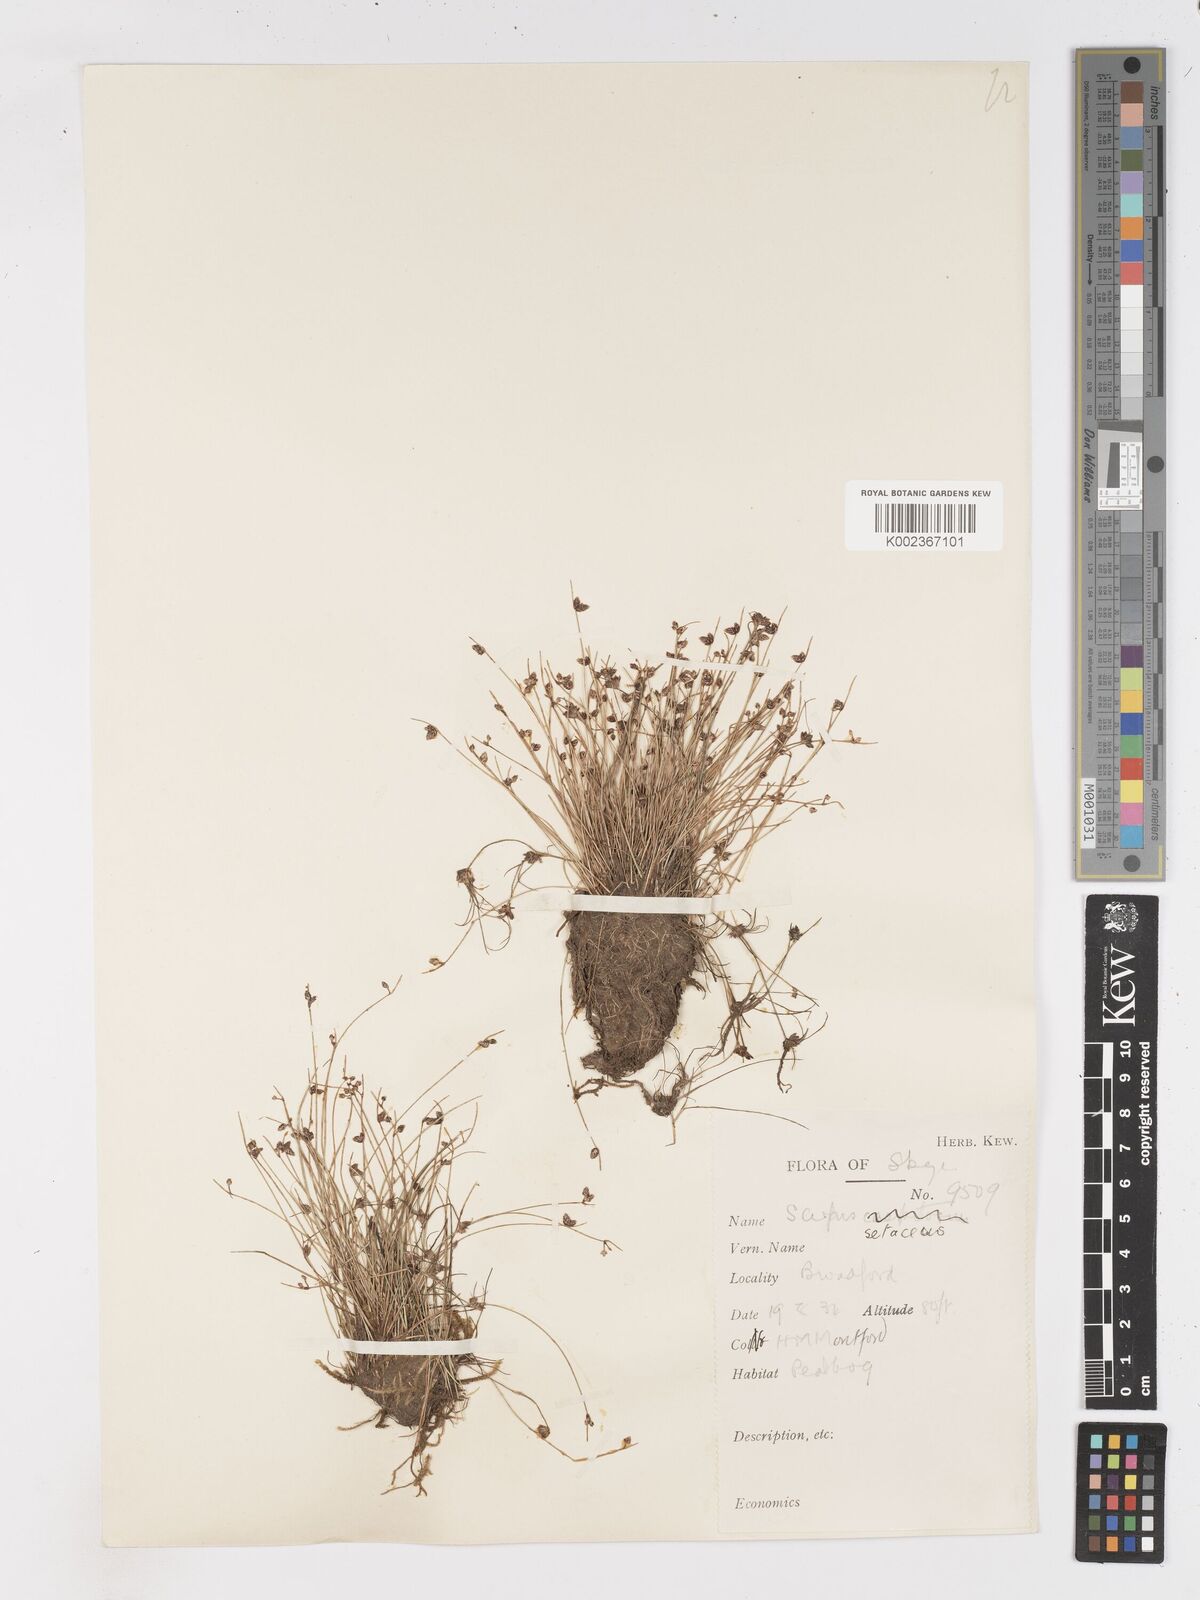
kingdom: Plantae
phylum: Tracheophyta
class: Liliopsida
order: Poales
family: Cyperaceae
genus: Isolepis
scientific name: Isolepis setacea
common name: Bristle club-rush
